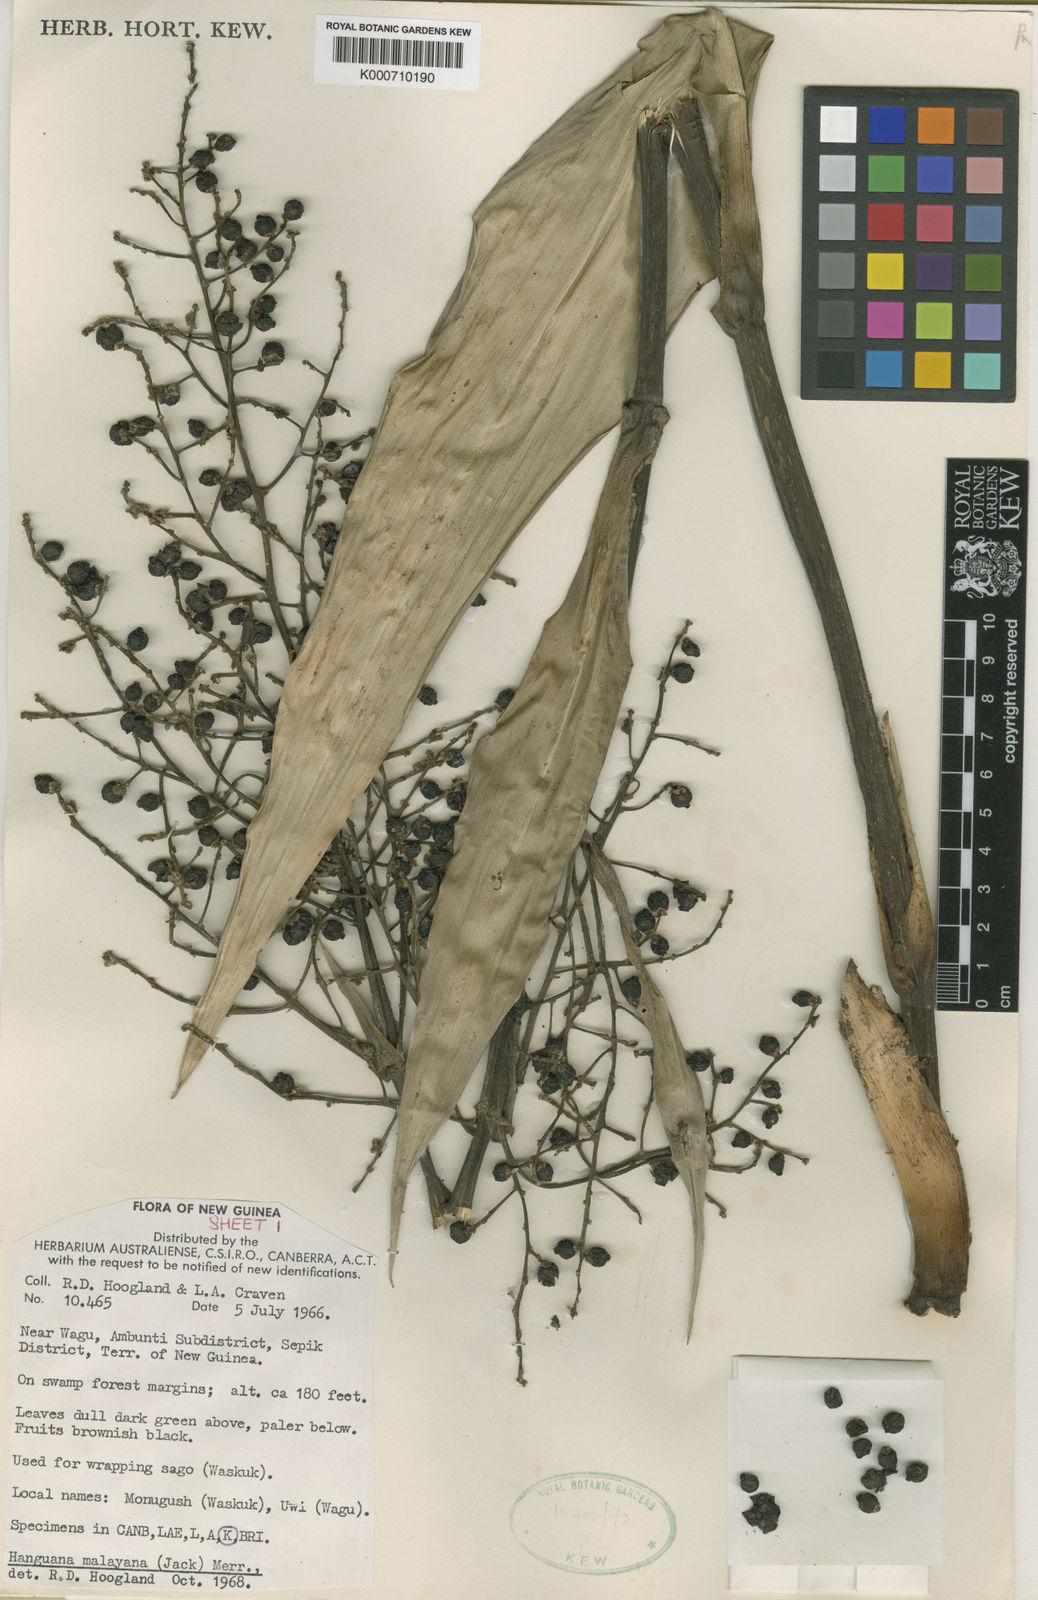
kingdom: Plantae
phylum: Tracheophyta
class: Liliopsida
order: Commelinales
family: Hanguanaceae
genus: Hanguana
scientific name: Hanguana malayana
